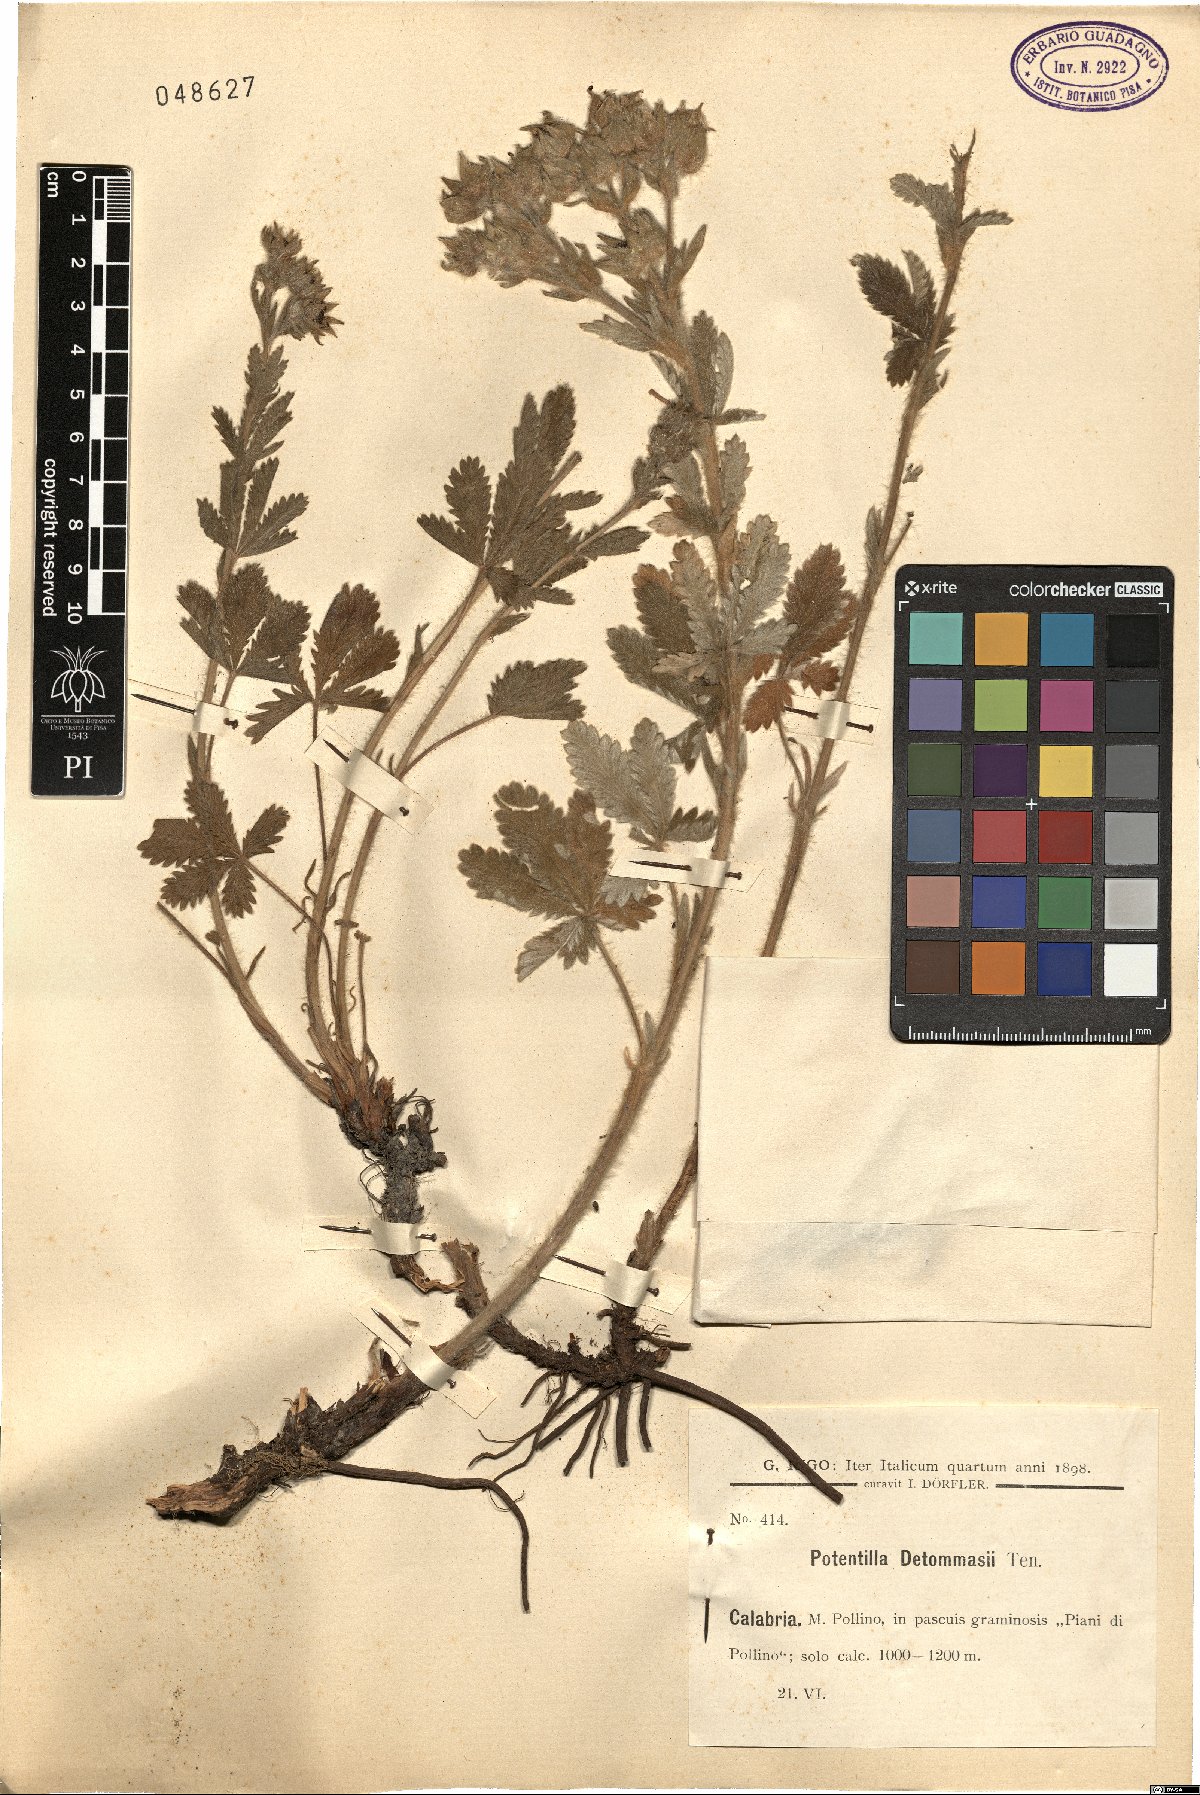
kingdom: Plantae
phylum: Tracheophyta
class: Magnoliopsida
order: Rosales
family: Rosaceae
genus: Potentilla
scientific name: Potentilla detommasii
